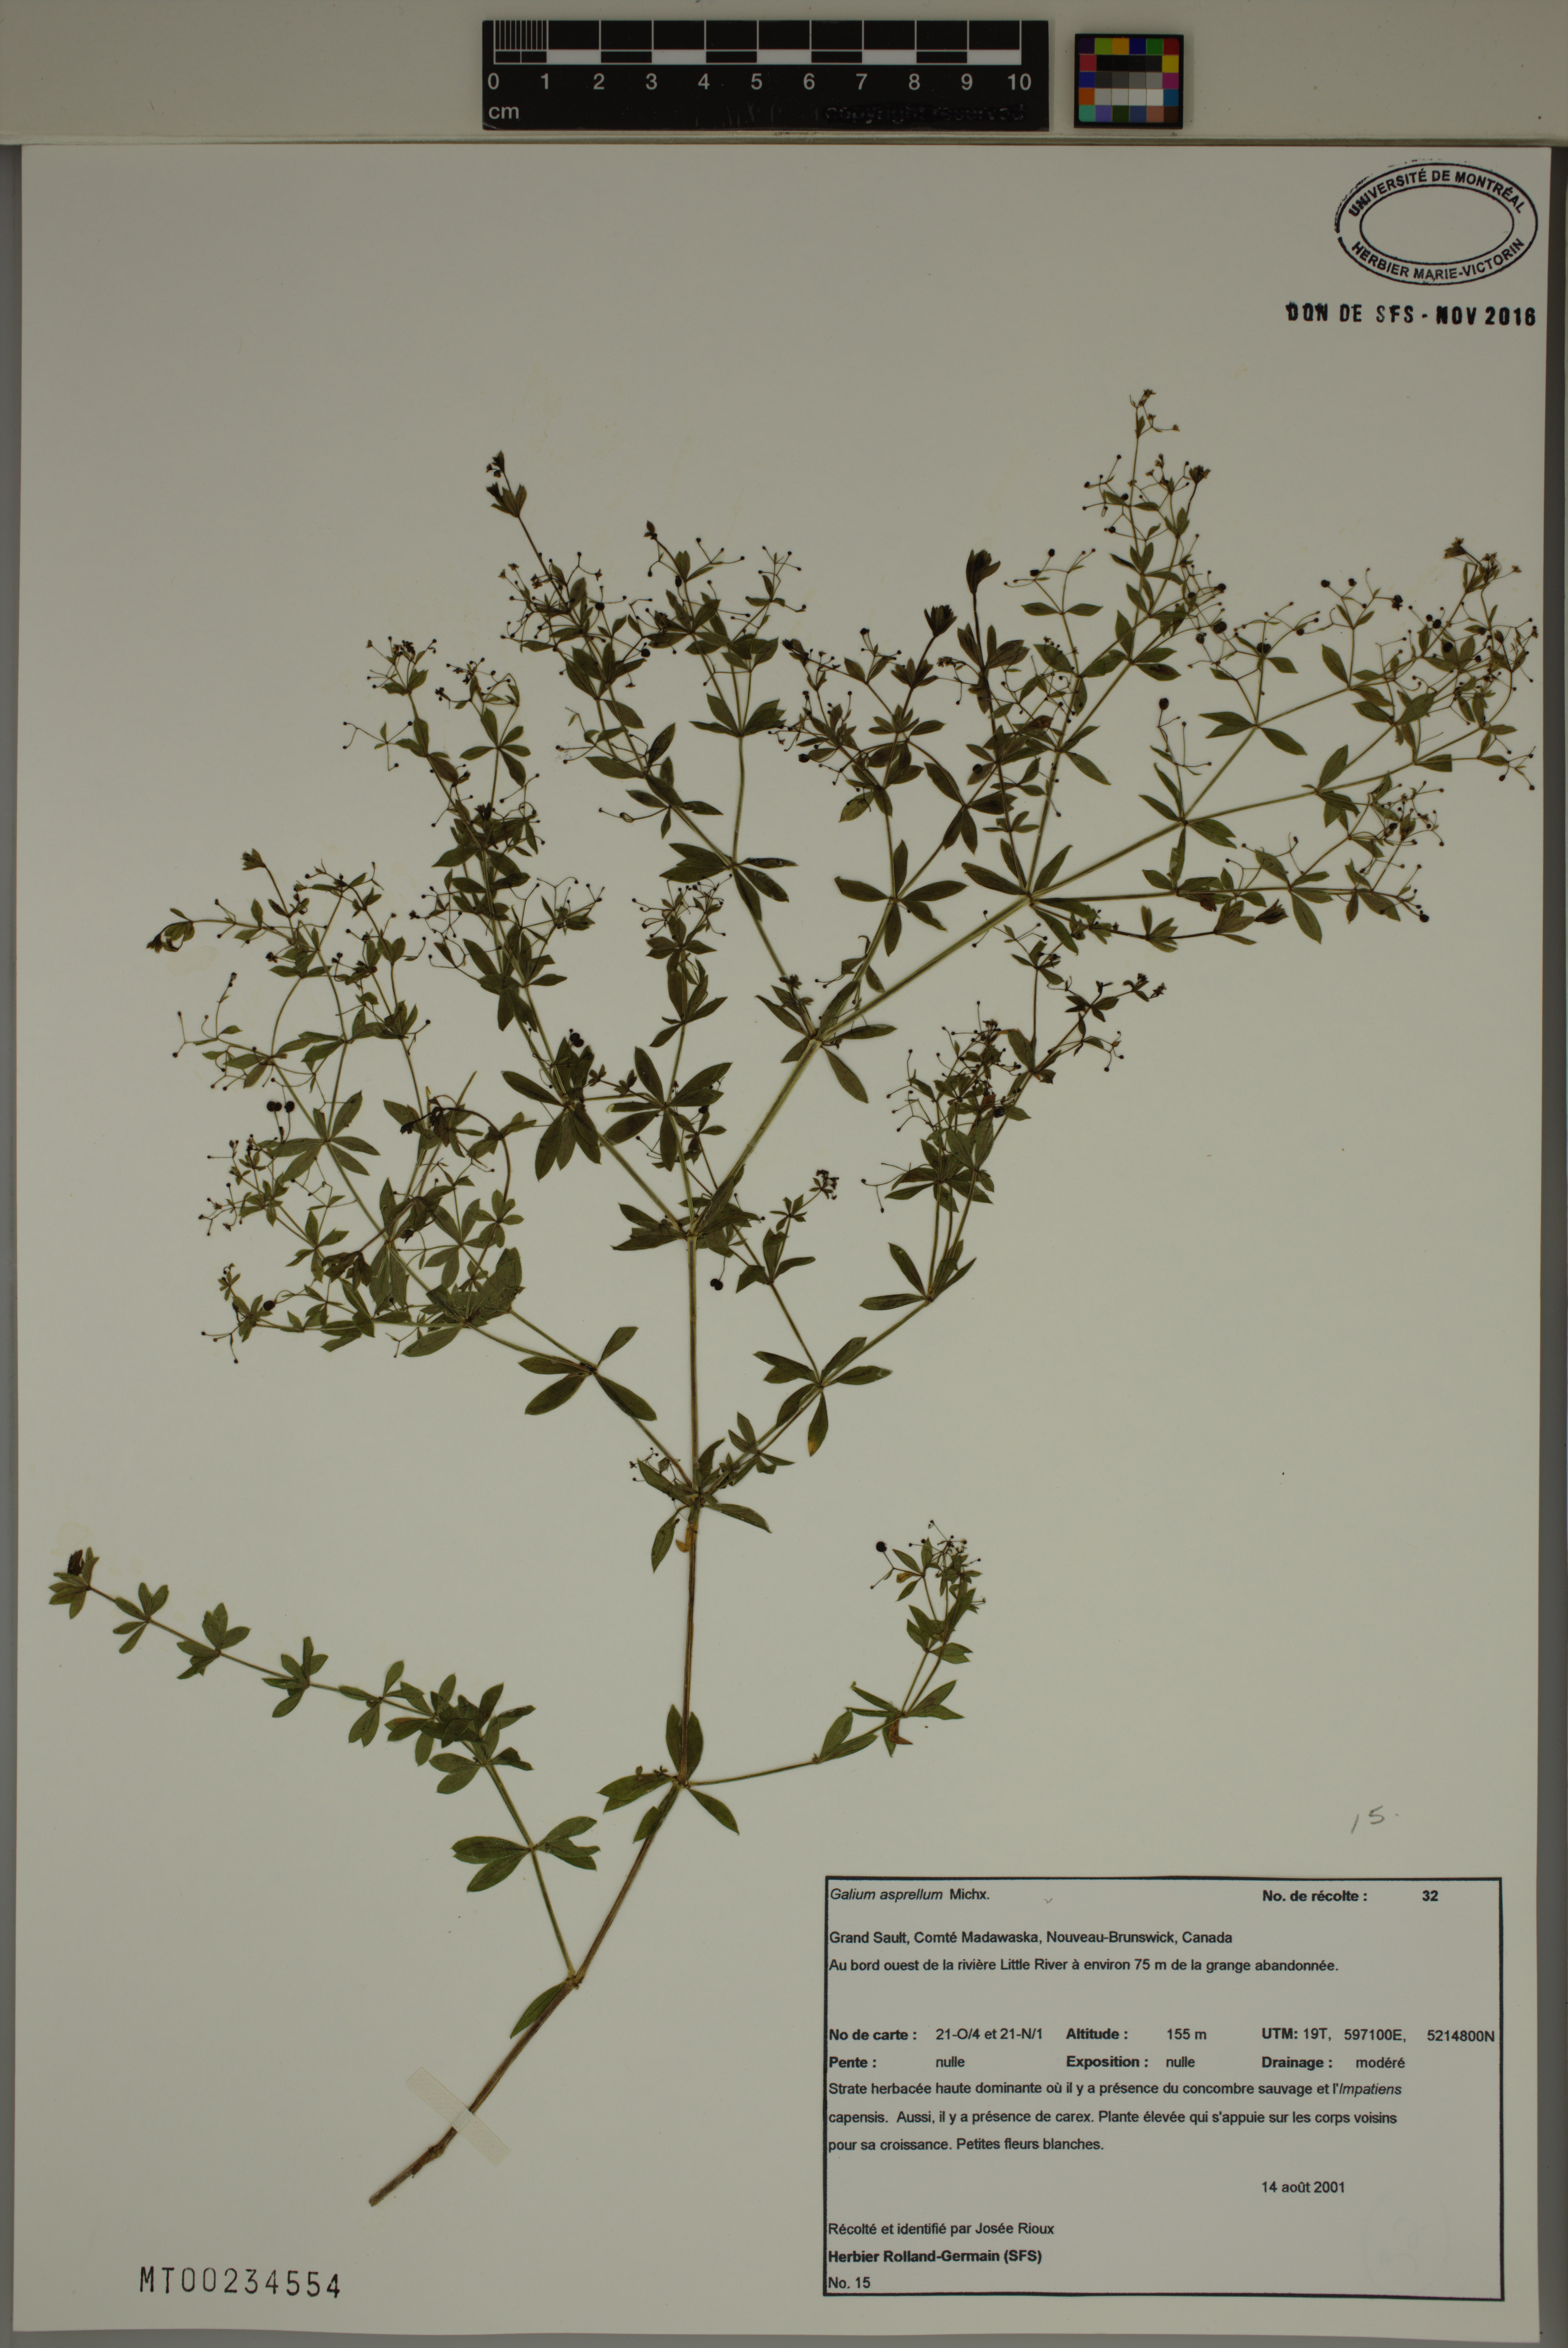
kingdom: Plantae
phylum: Tracheophyta
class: Magnoliopsida
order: Gentianales
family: Rubiaceae
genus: Galium
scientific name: Galium asprellum
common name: Rough bedstraw
